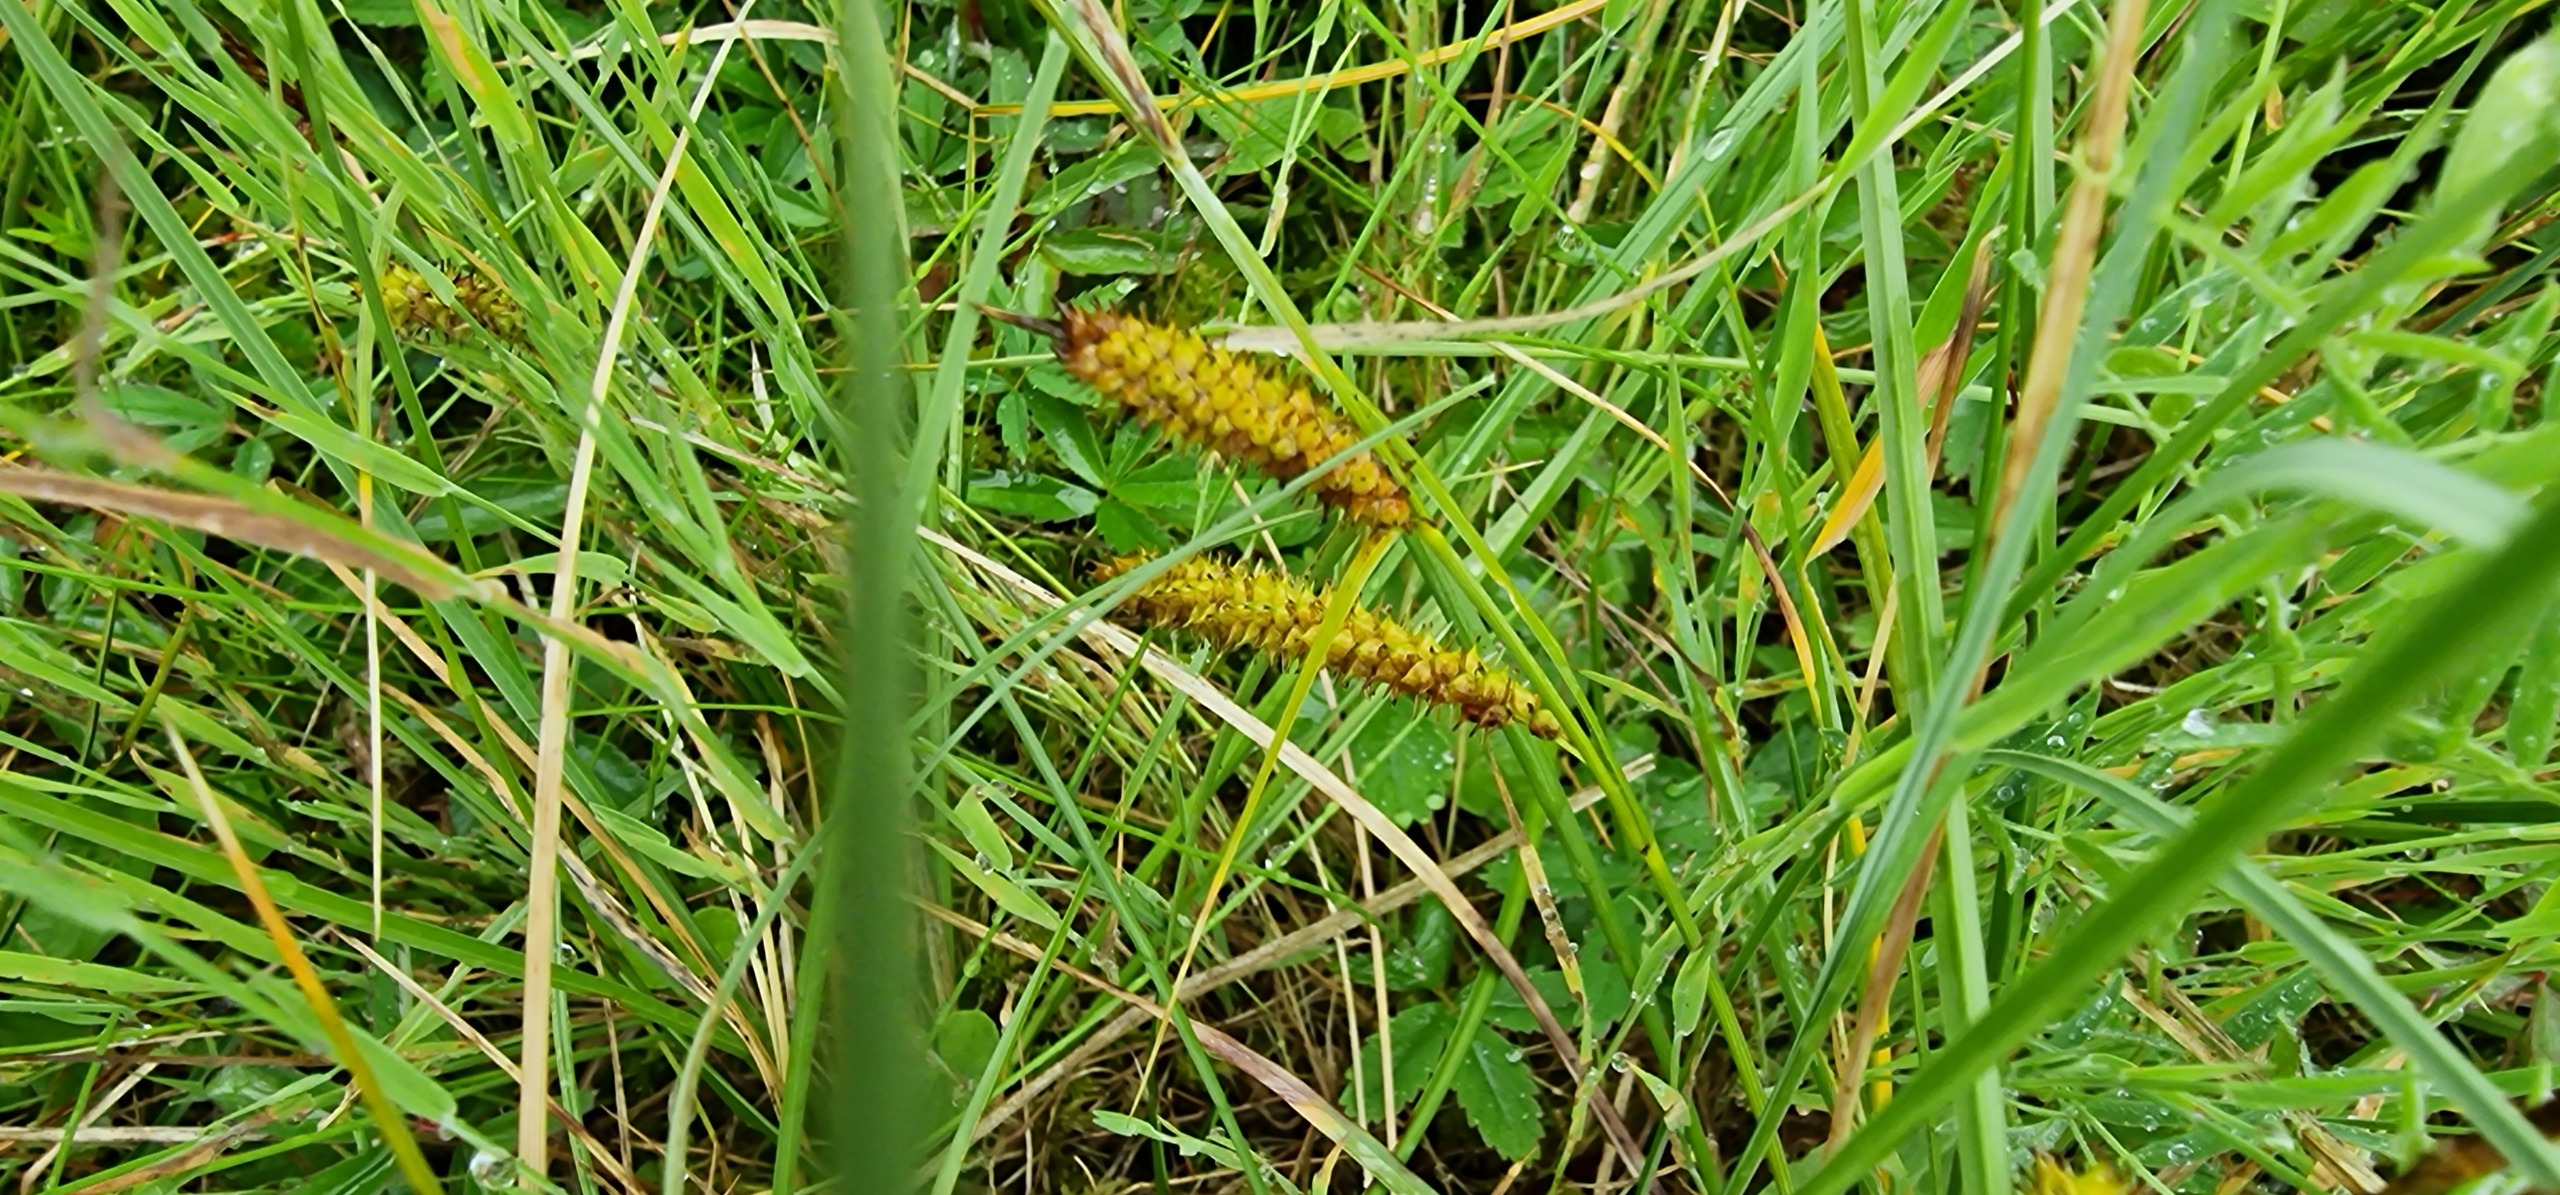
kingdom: Plantae
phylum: Tracheophyta
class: Liliopsida
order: Poales
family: Cyperaceae
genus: Carex
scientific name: Carex rostrata
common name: Næb-star
